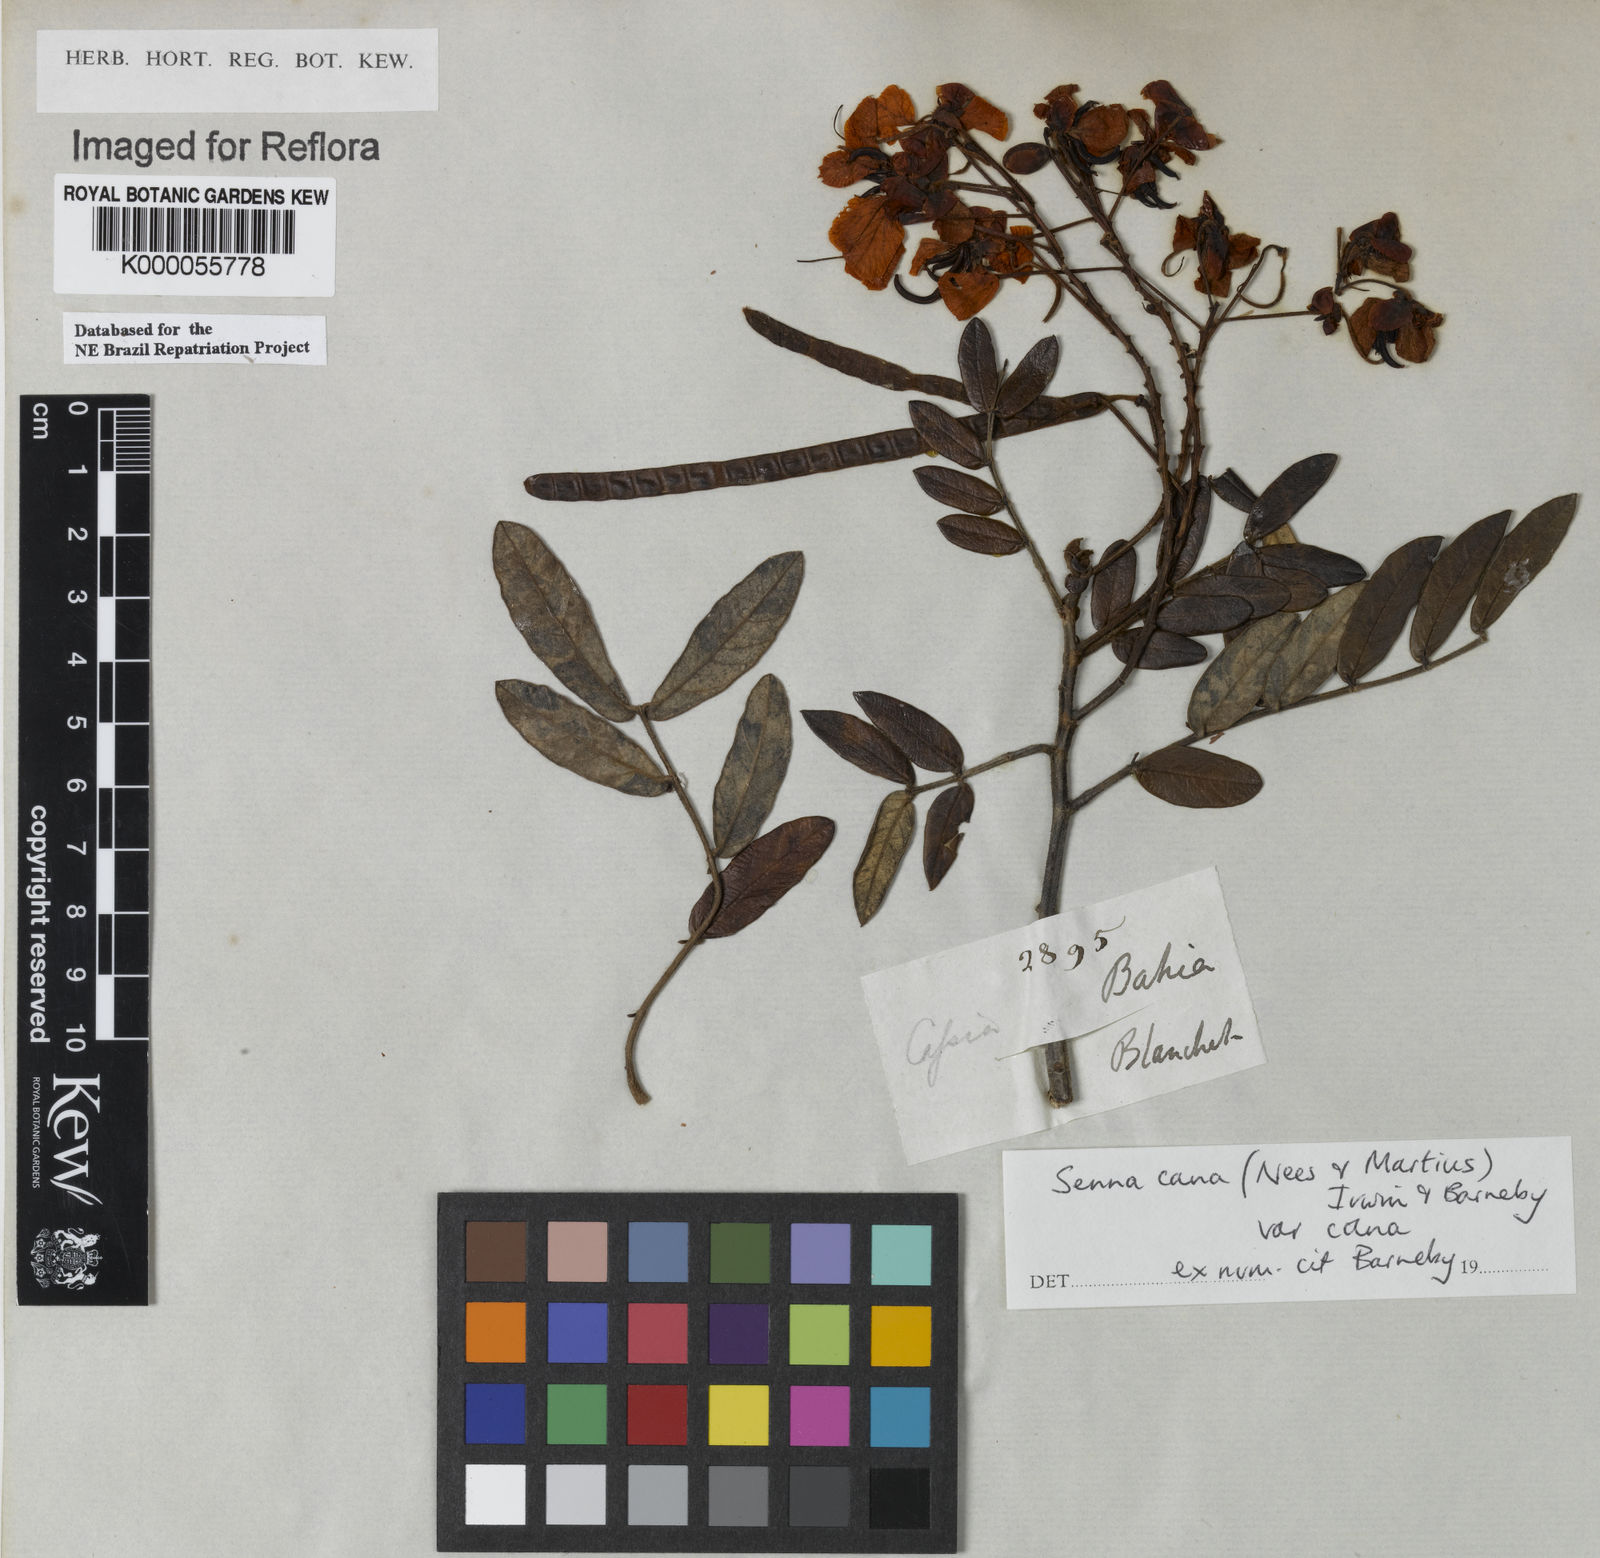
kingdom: Plantae
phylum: Tracheophyta
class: Magnoliopsida
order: Fabales
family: Fabaceae
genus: Senna
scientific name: Senna cana
